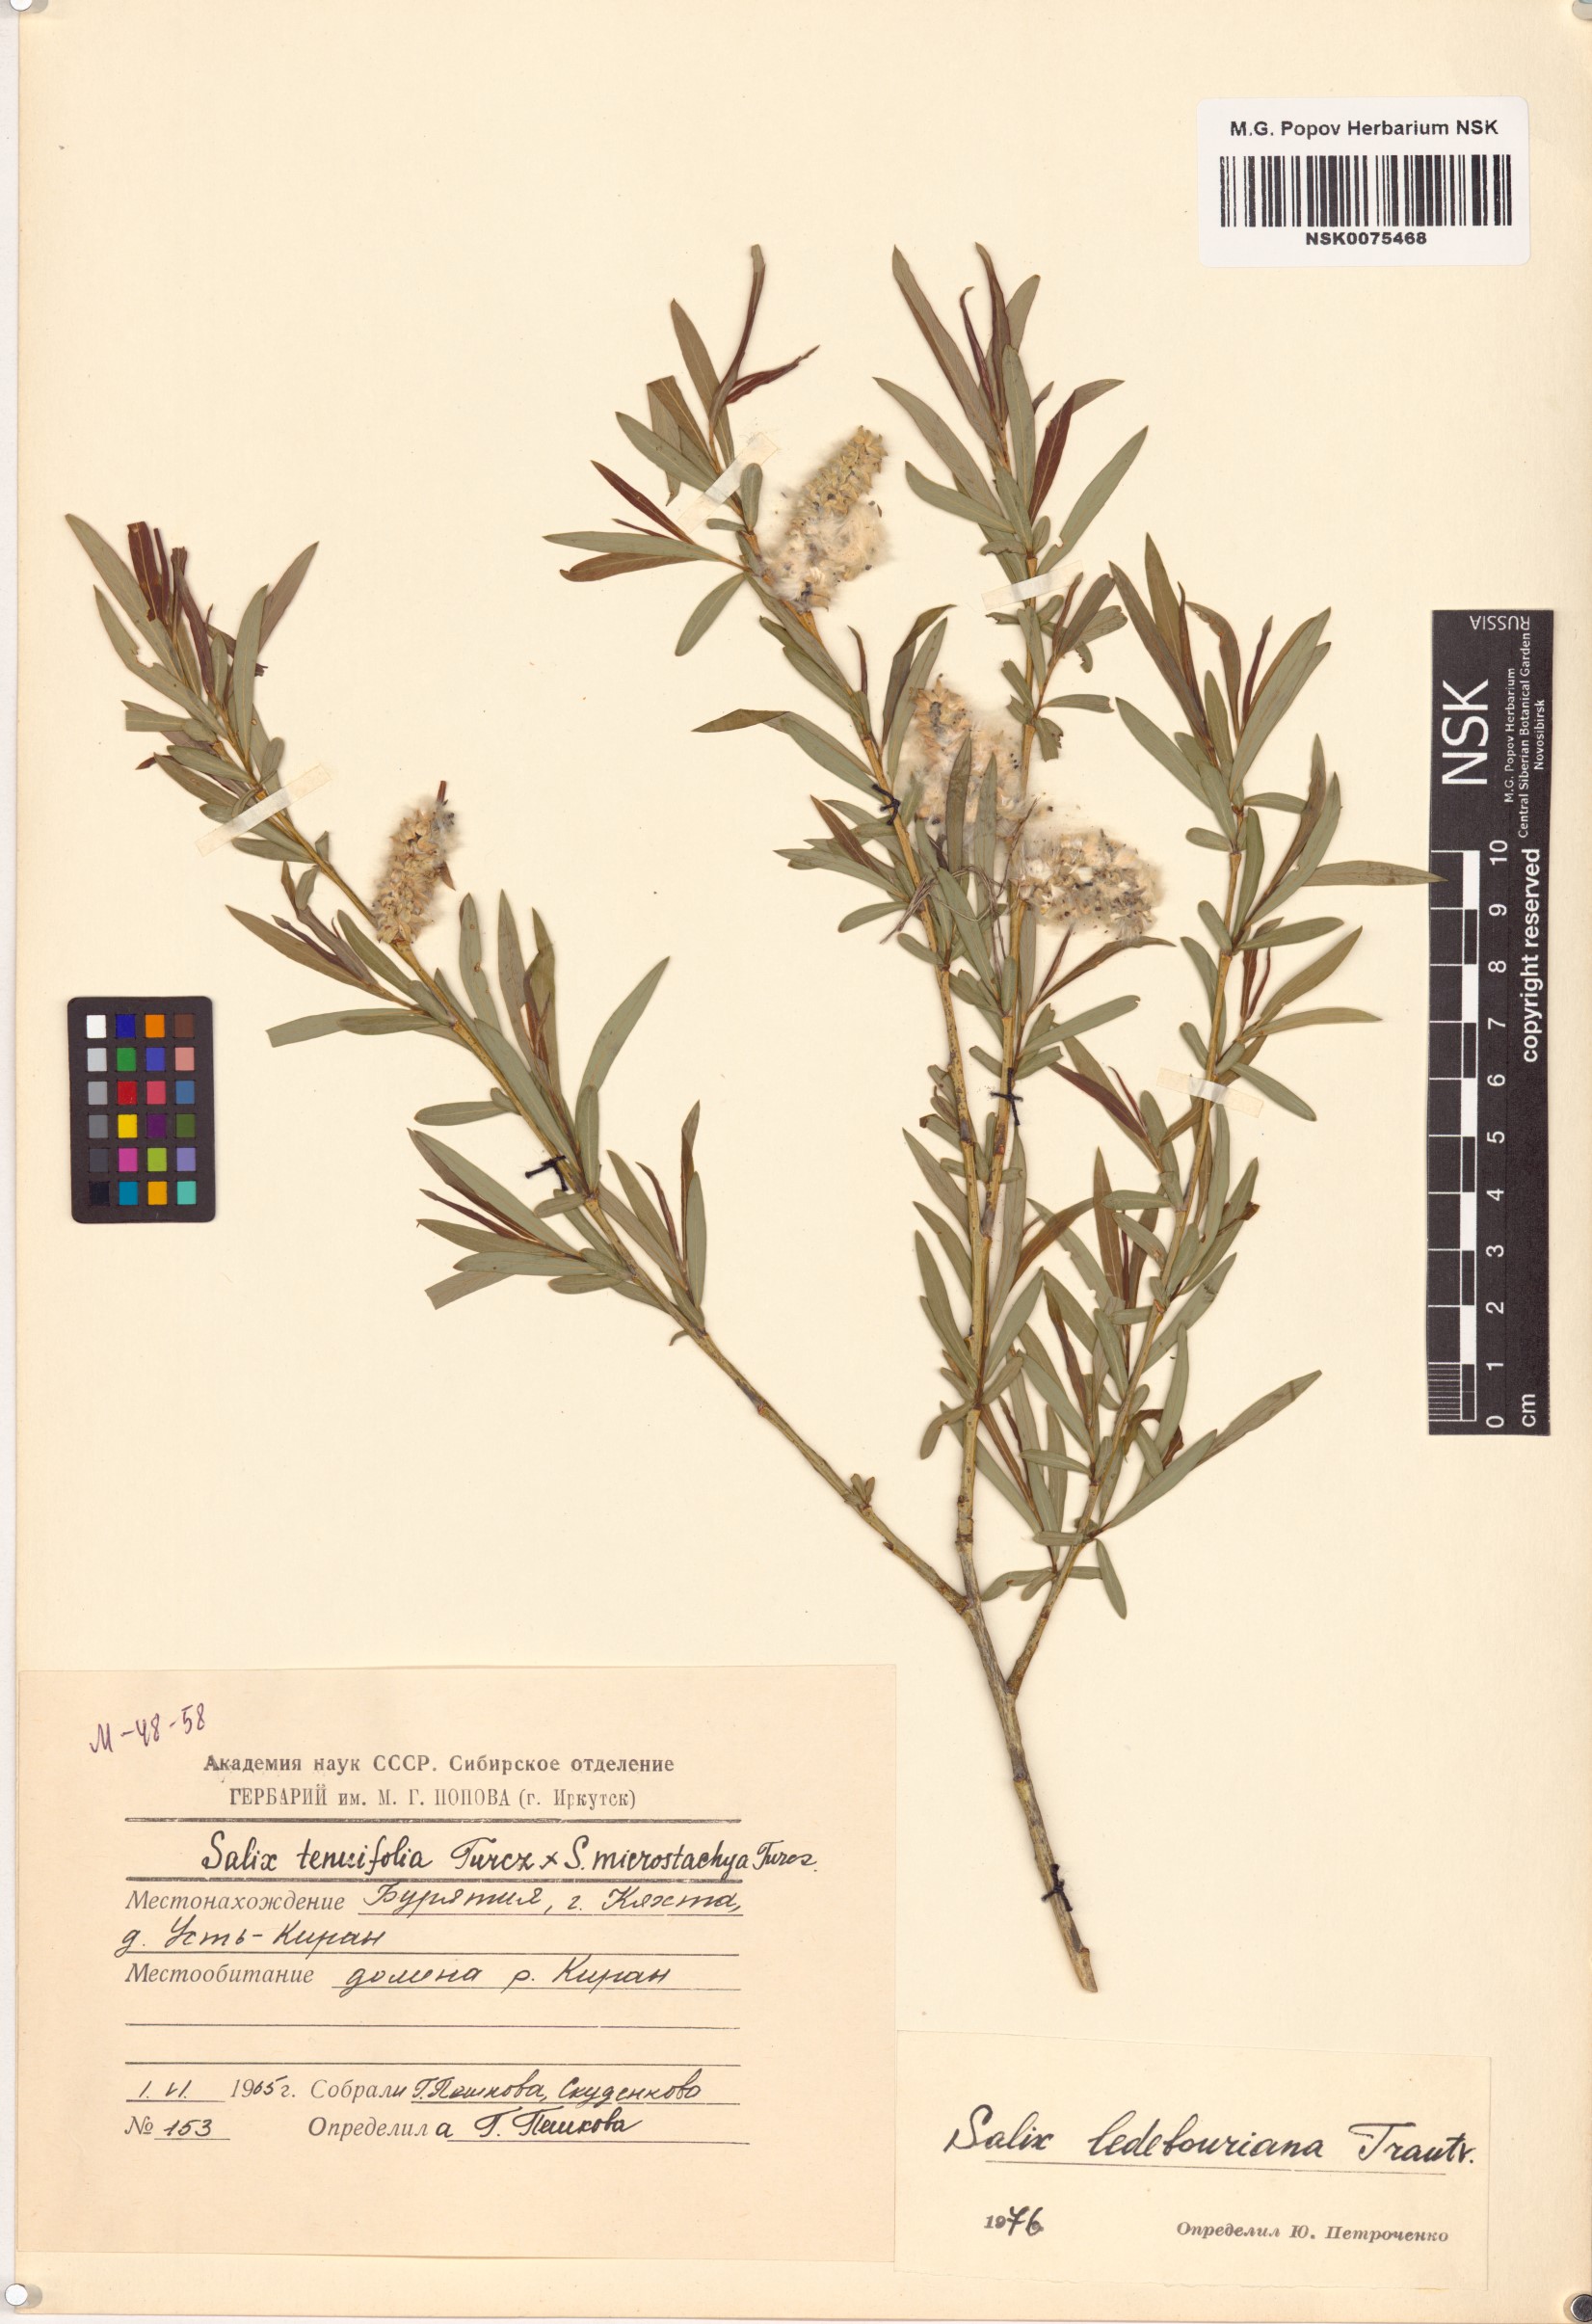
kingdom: Plantae
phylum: Tracheophyta
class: Magnoliopsida
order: Malpighiales
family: Salicaceae
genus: Salix
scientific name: Salix ledebouriana
